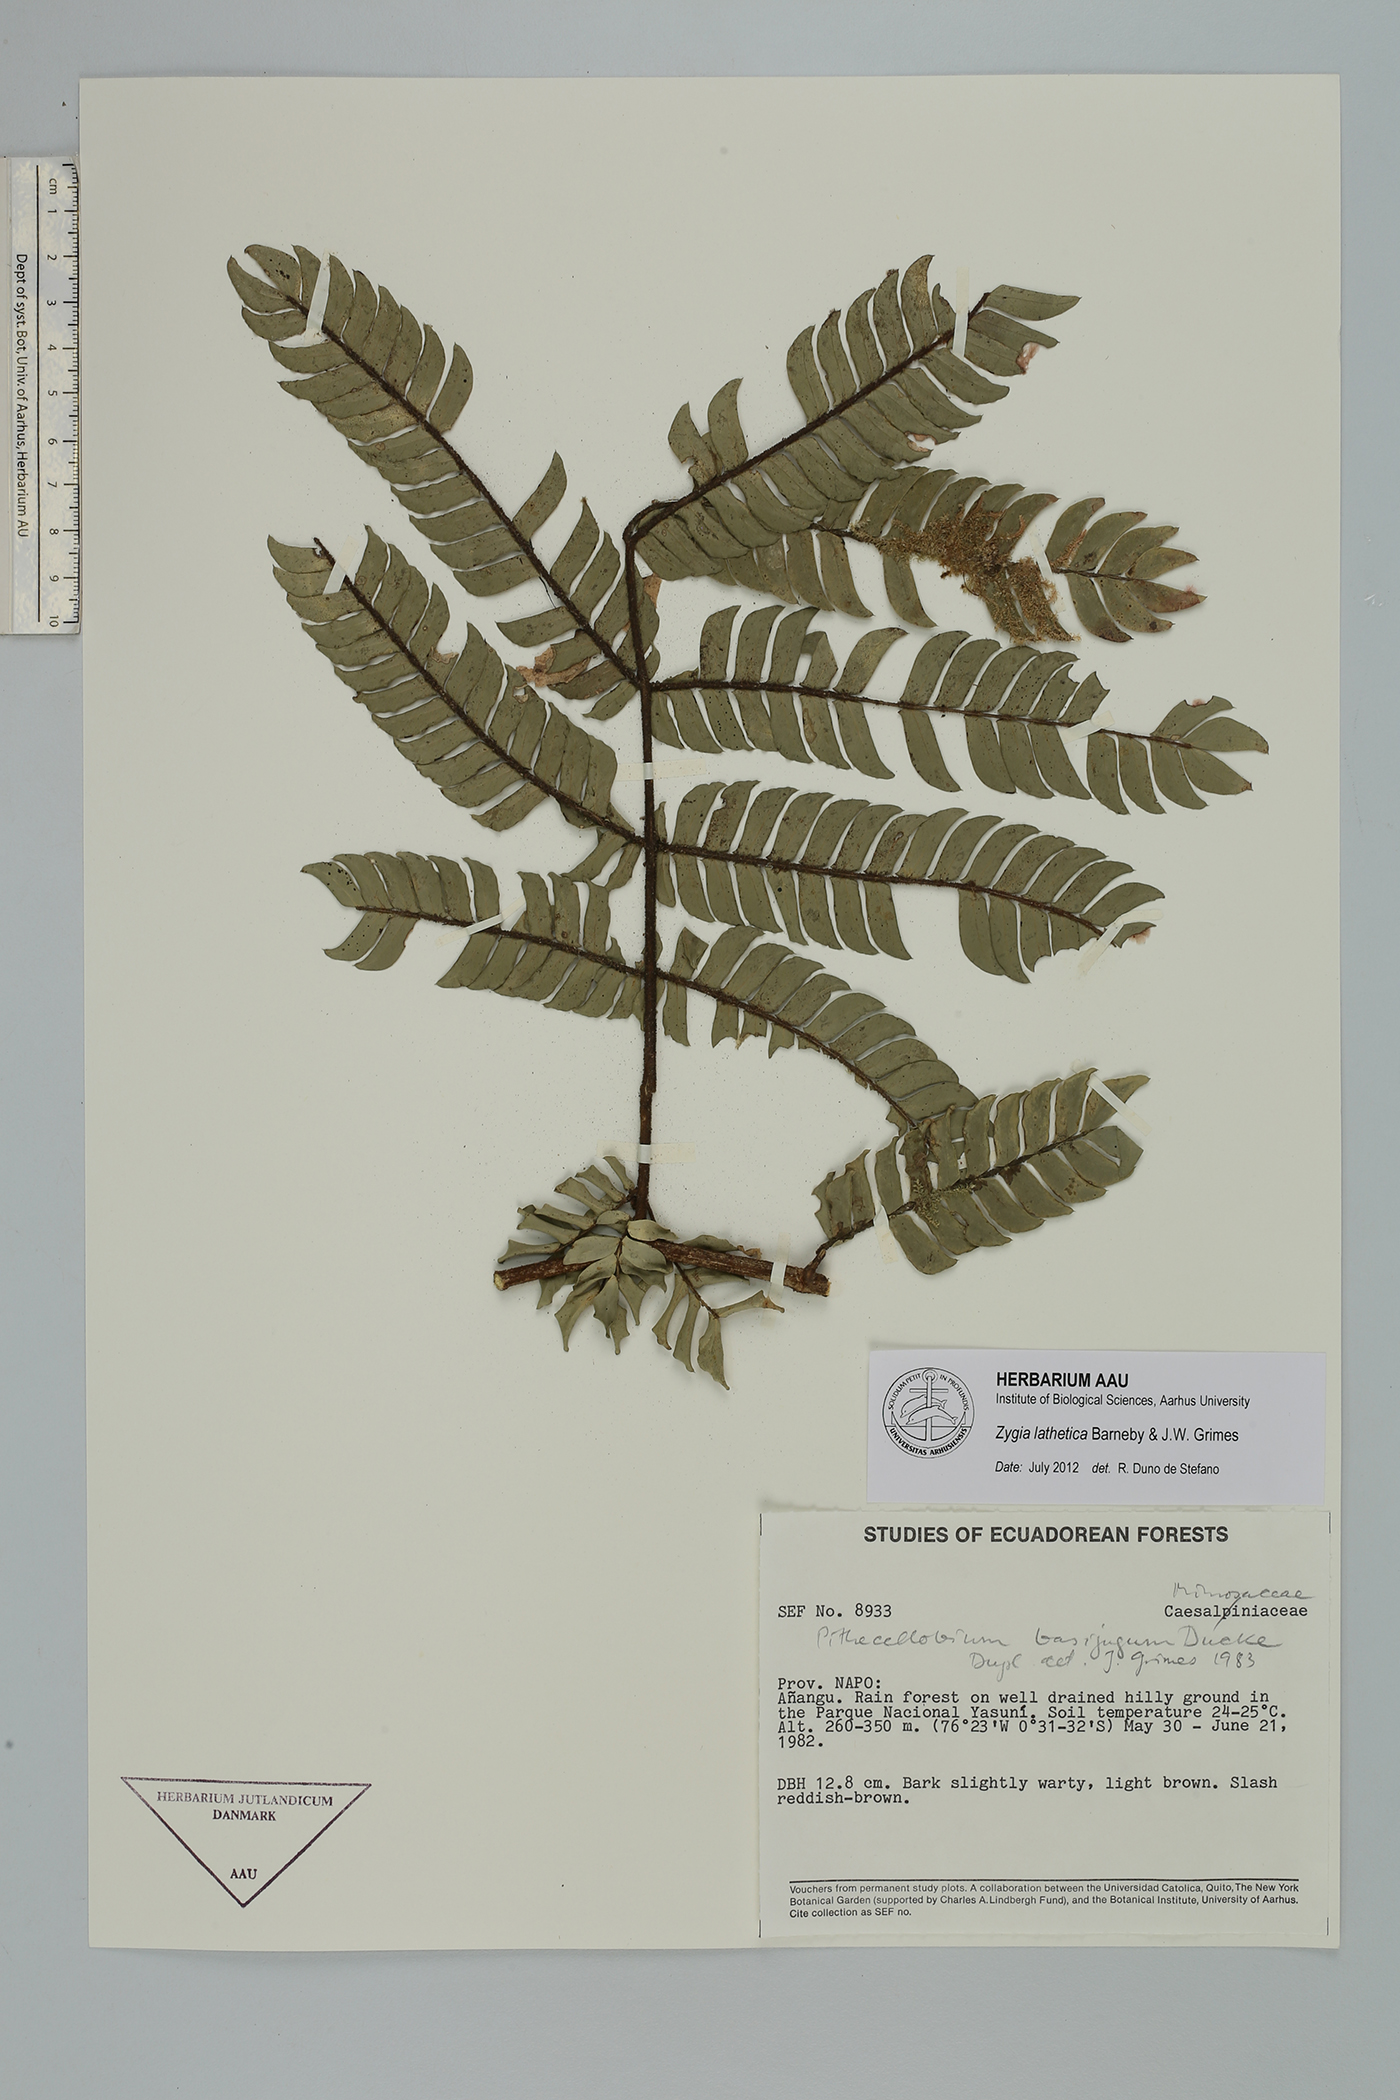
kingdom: Plantae
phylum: Tracheophyta
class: Magnoliopsida
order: Fabales
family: Fabaceae
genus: Zygia
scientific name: Zygia lathetica
